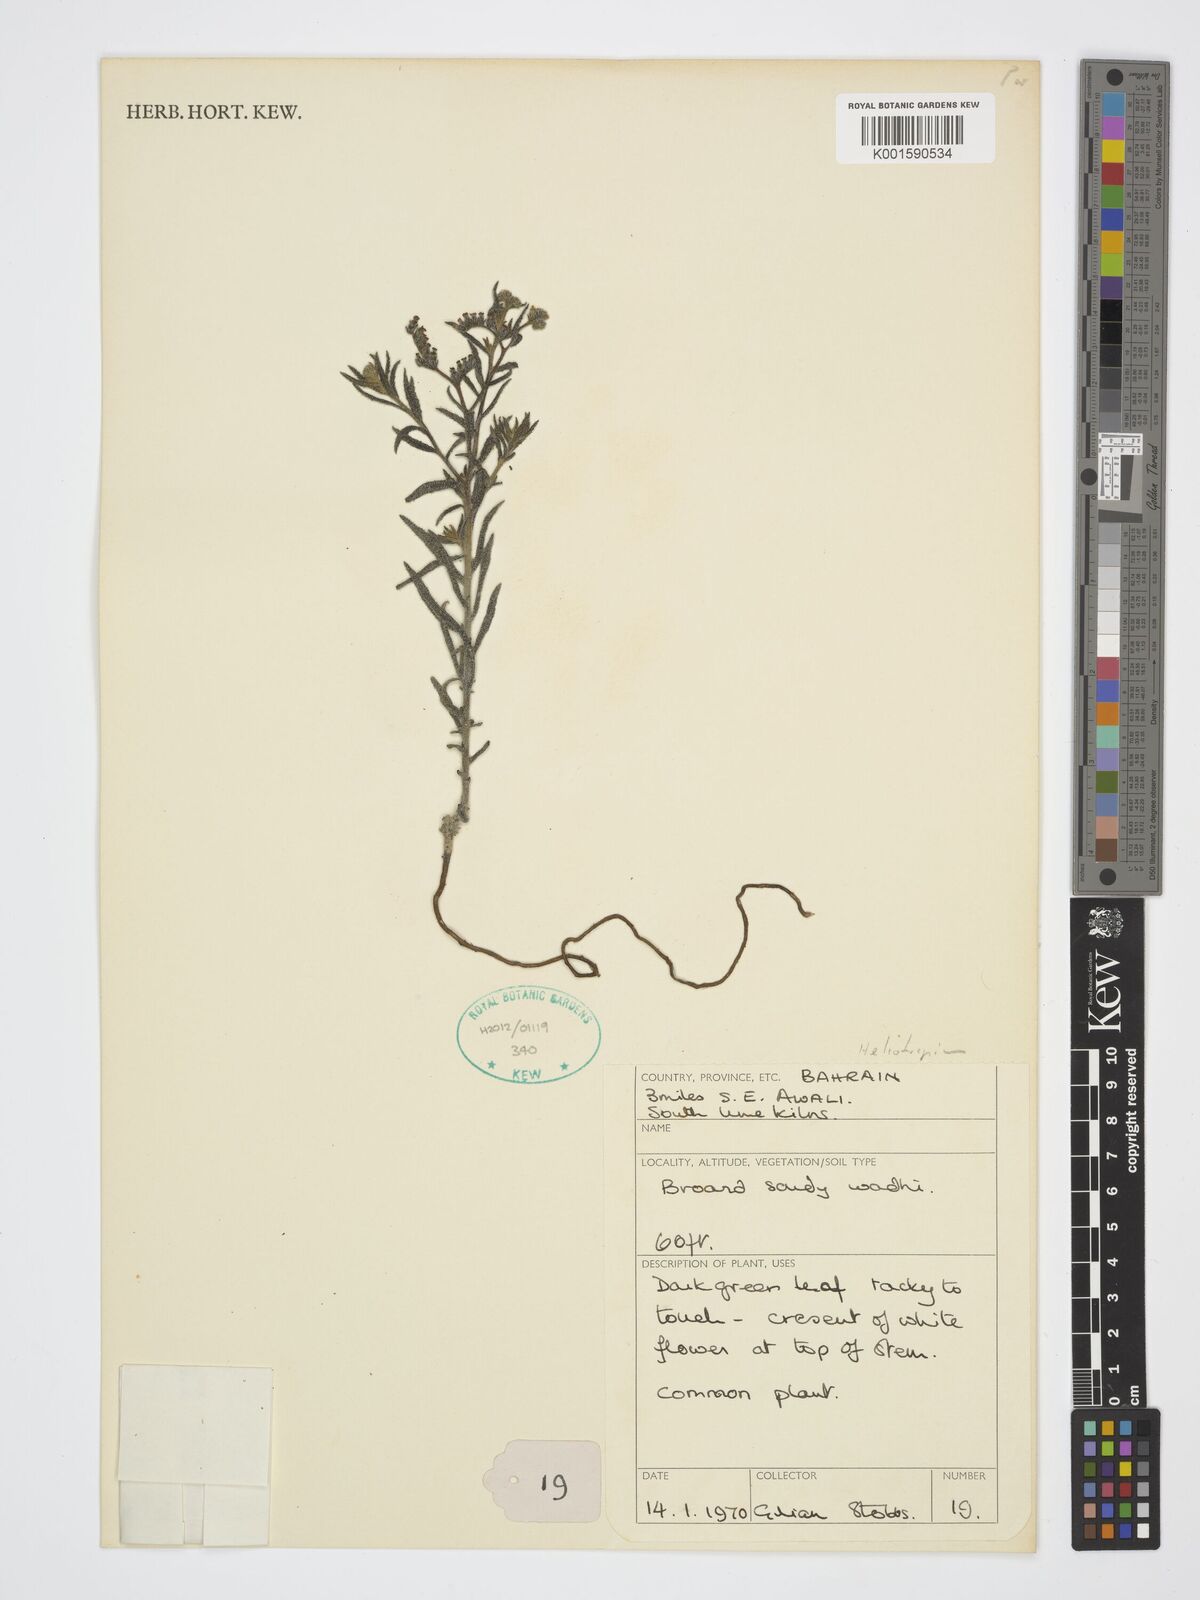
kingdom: Plantae
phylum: Tracheophyta
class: Magnoliopsida
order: Boraginales
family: Heliotropiaceae
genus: Heliotropium
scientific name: Heliotropium
